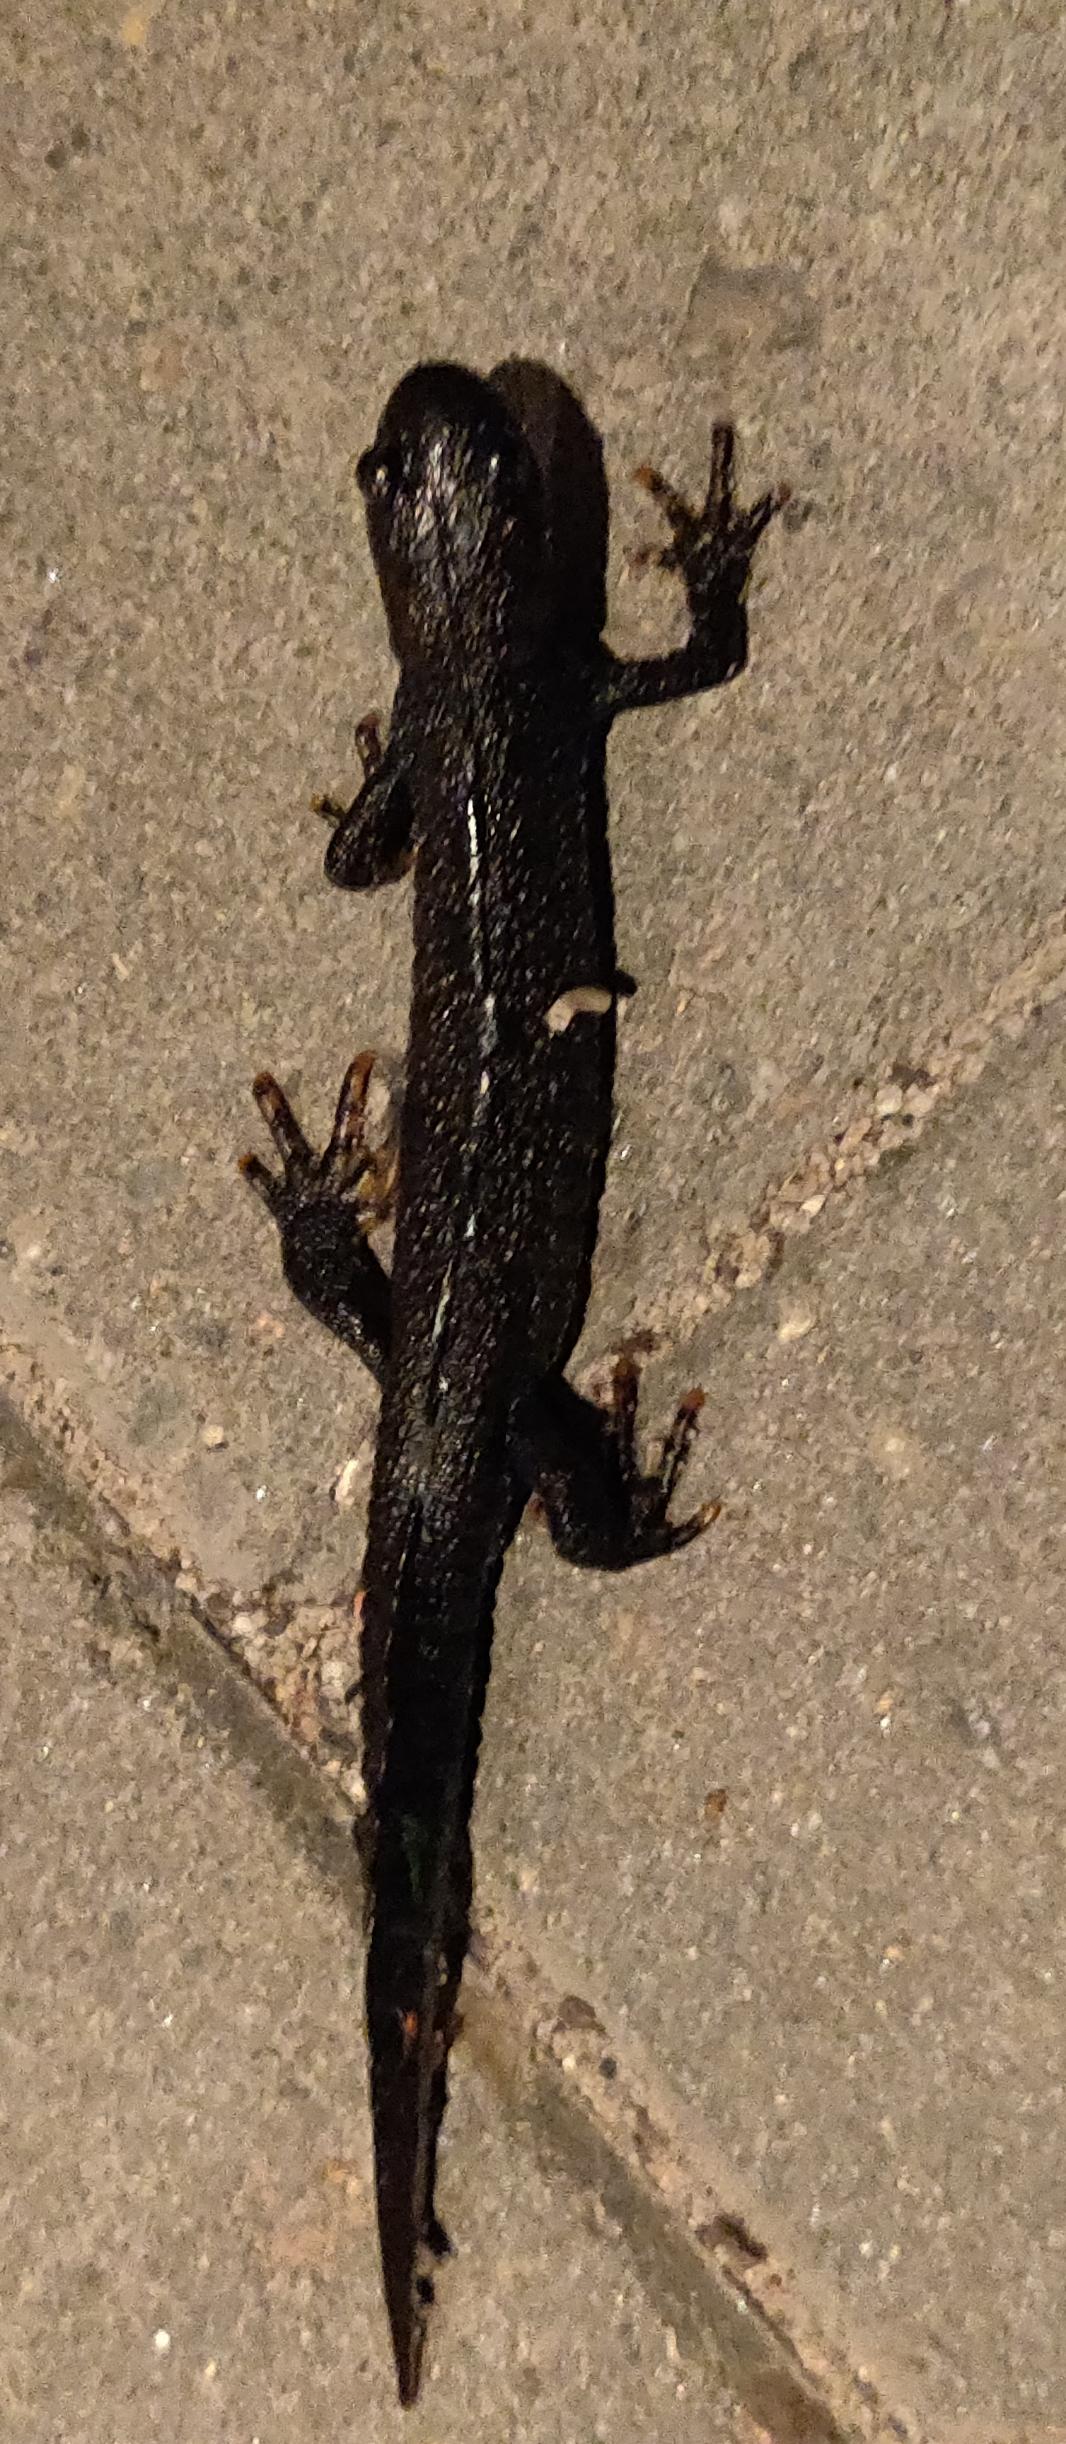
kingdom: Animalia
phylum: Chordata
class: Amphibia
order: Caudata
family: Salamandridae
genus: Triturus
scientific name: Triturus cristatus
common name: Stor vandsalamander
